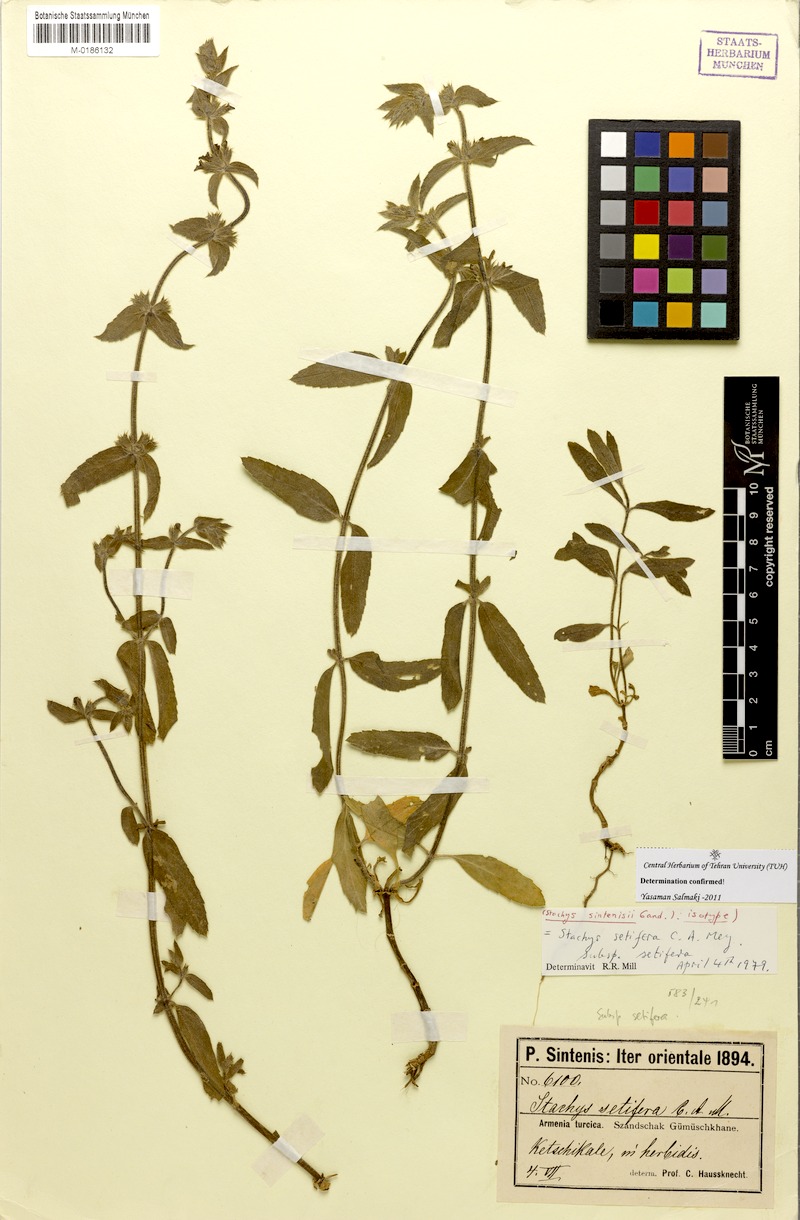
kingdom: Plantae
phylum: Tracheophyta
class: Magnoliopsida
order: Lamiales
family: Lamiaceae
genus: Stachys
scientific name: Stachys setifera
